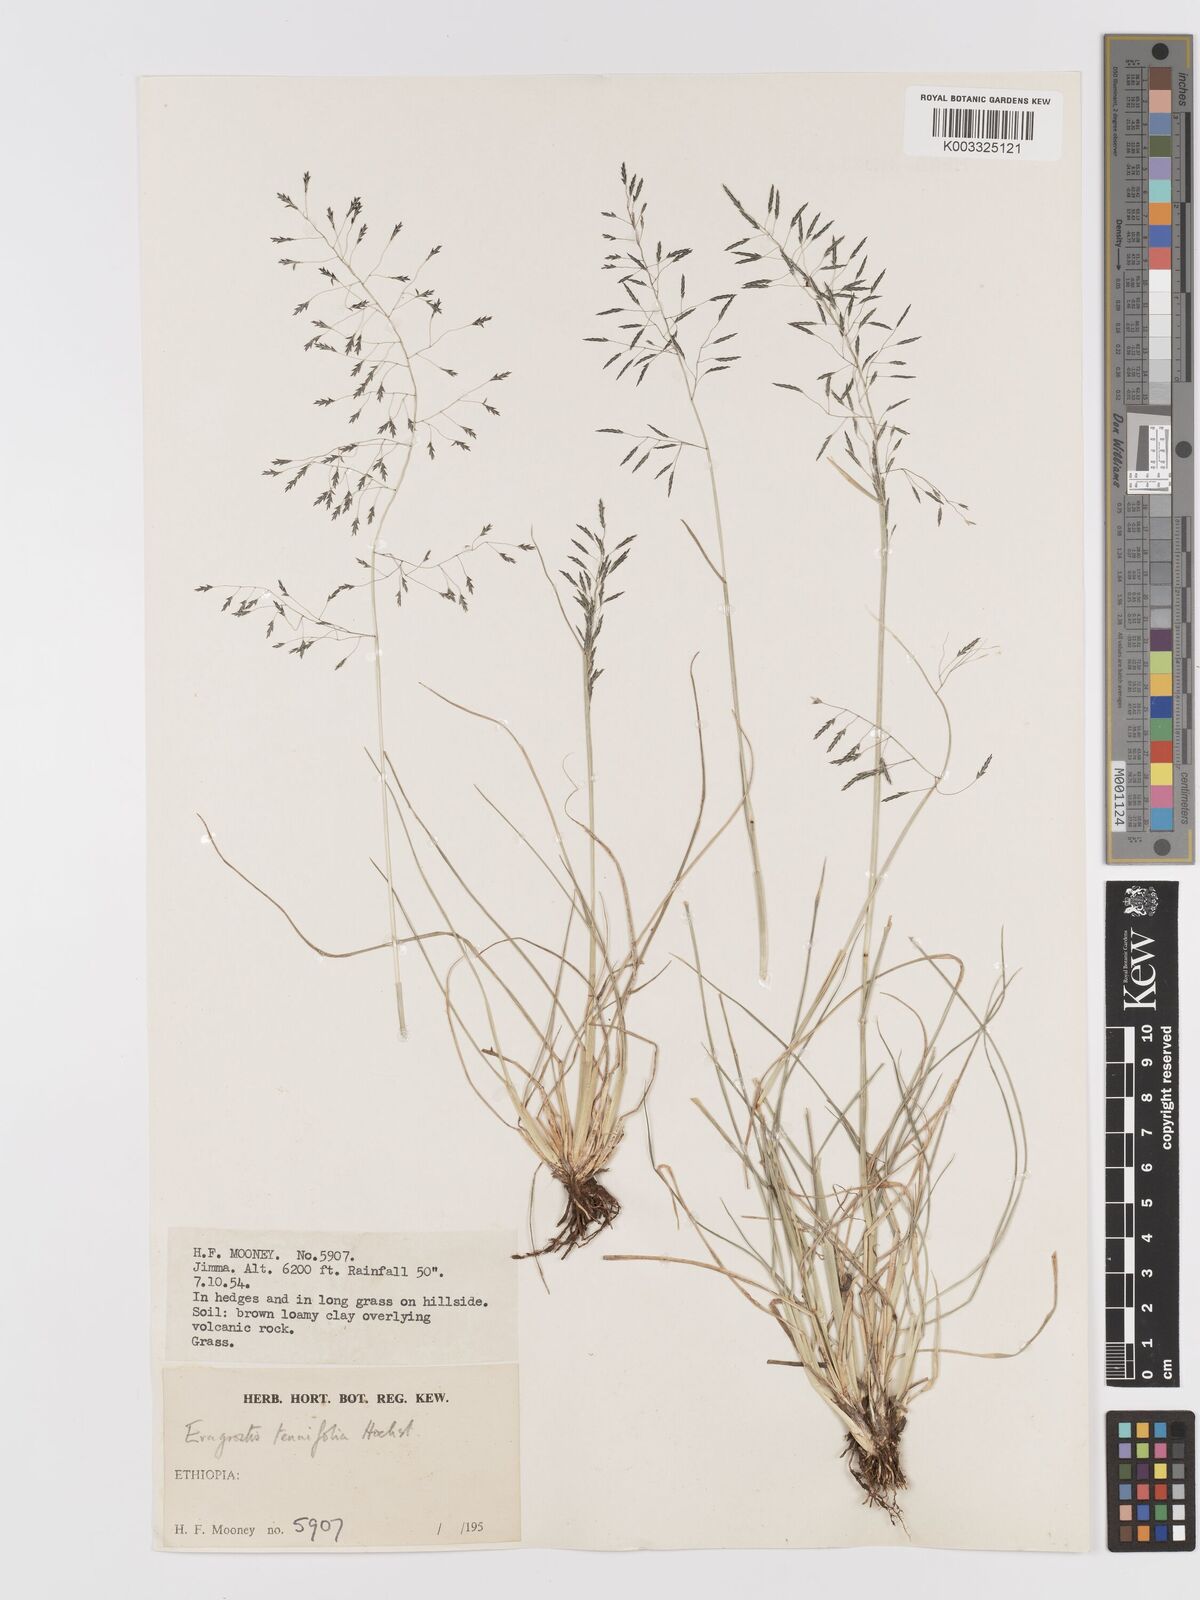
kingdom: Plantae
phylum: Tracheophyta
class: Liliopsida
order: Poales
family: Poaceae
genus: Eragrostis
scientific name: Eragrostis tenuifolia
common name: Elastic grass
